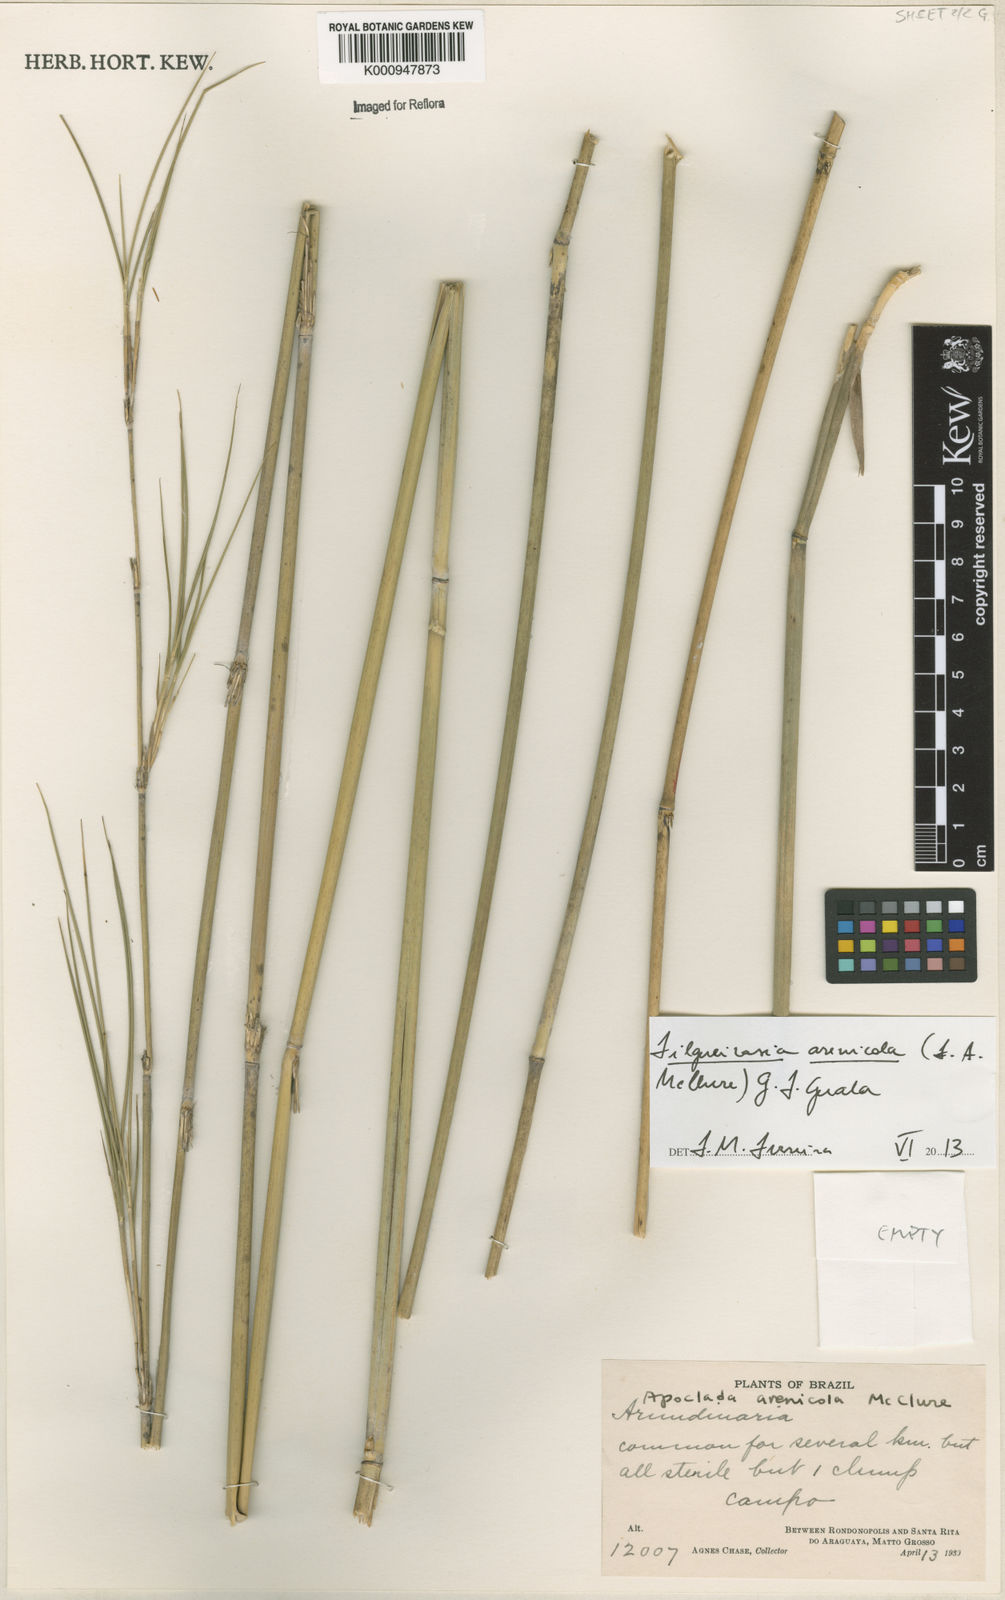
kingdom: Plantae
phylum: Tracheophyta
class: Liliopsida
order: Poales
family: Poaceae
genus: Filgueirasia
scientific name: Filgueirasia arenicola
